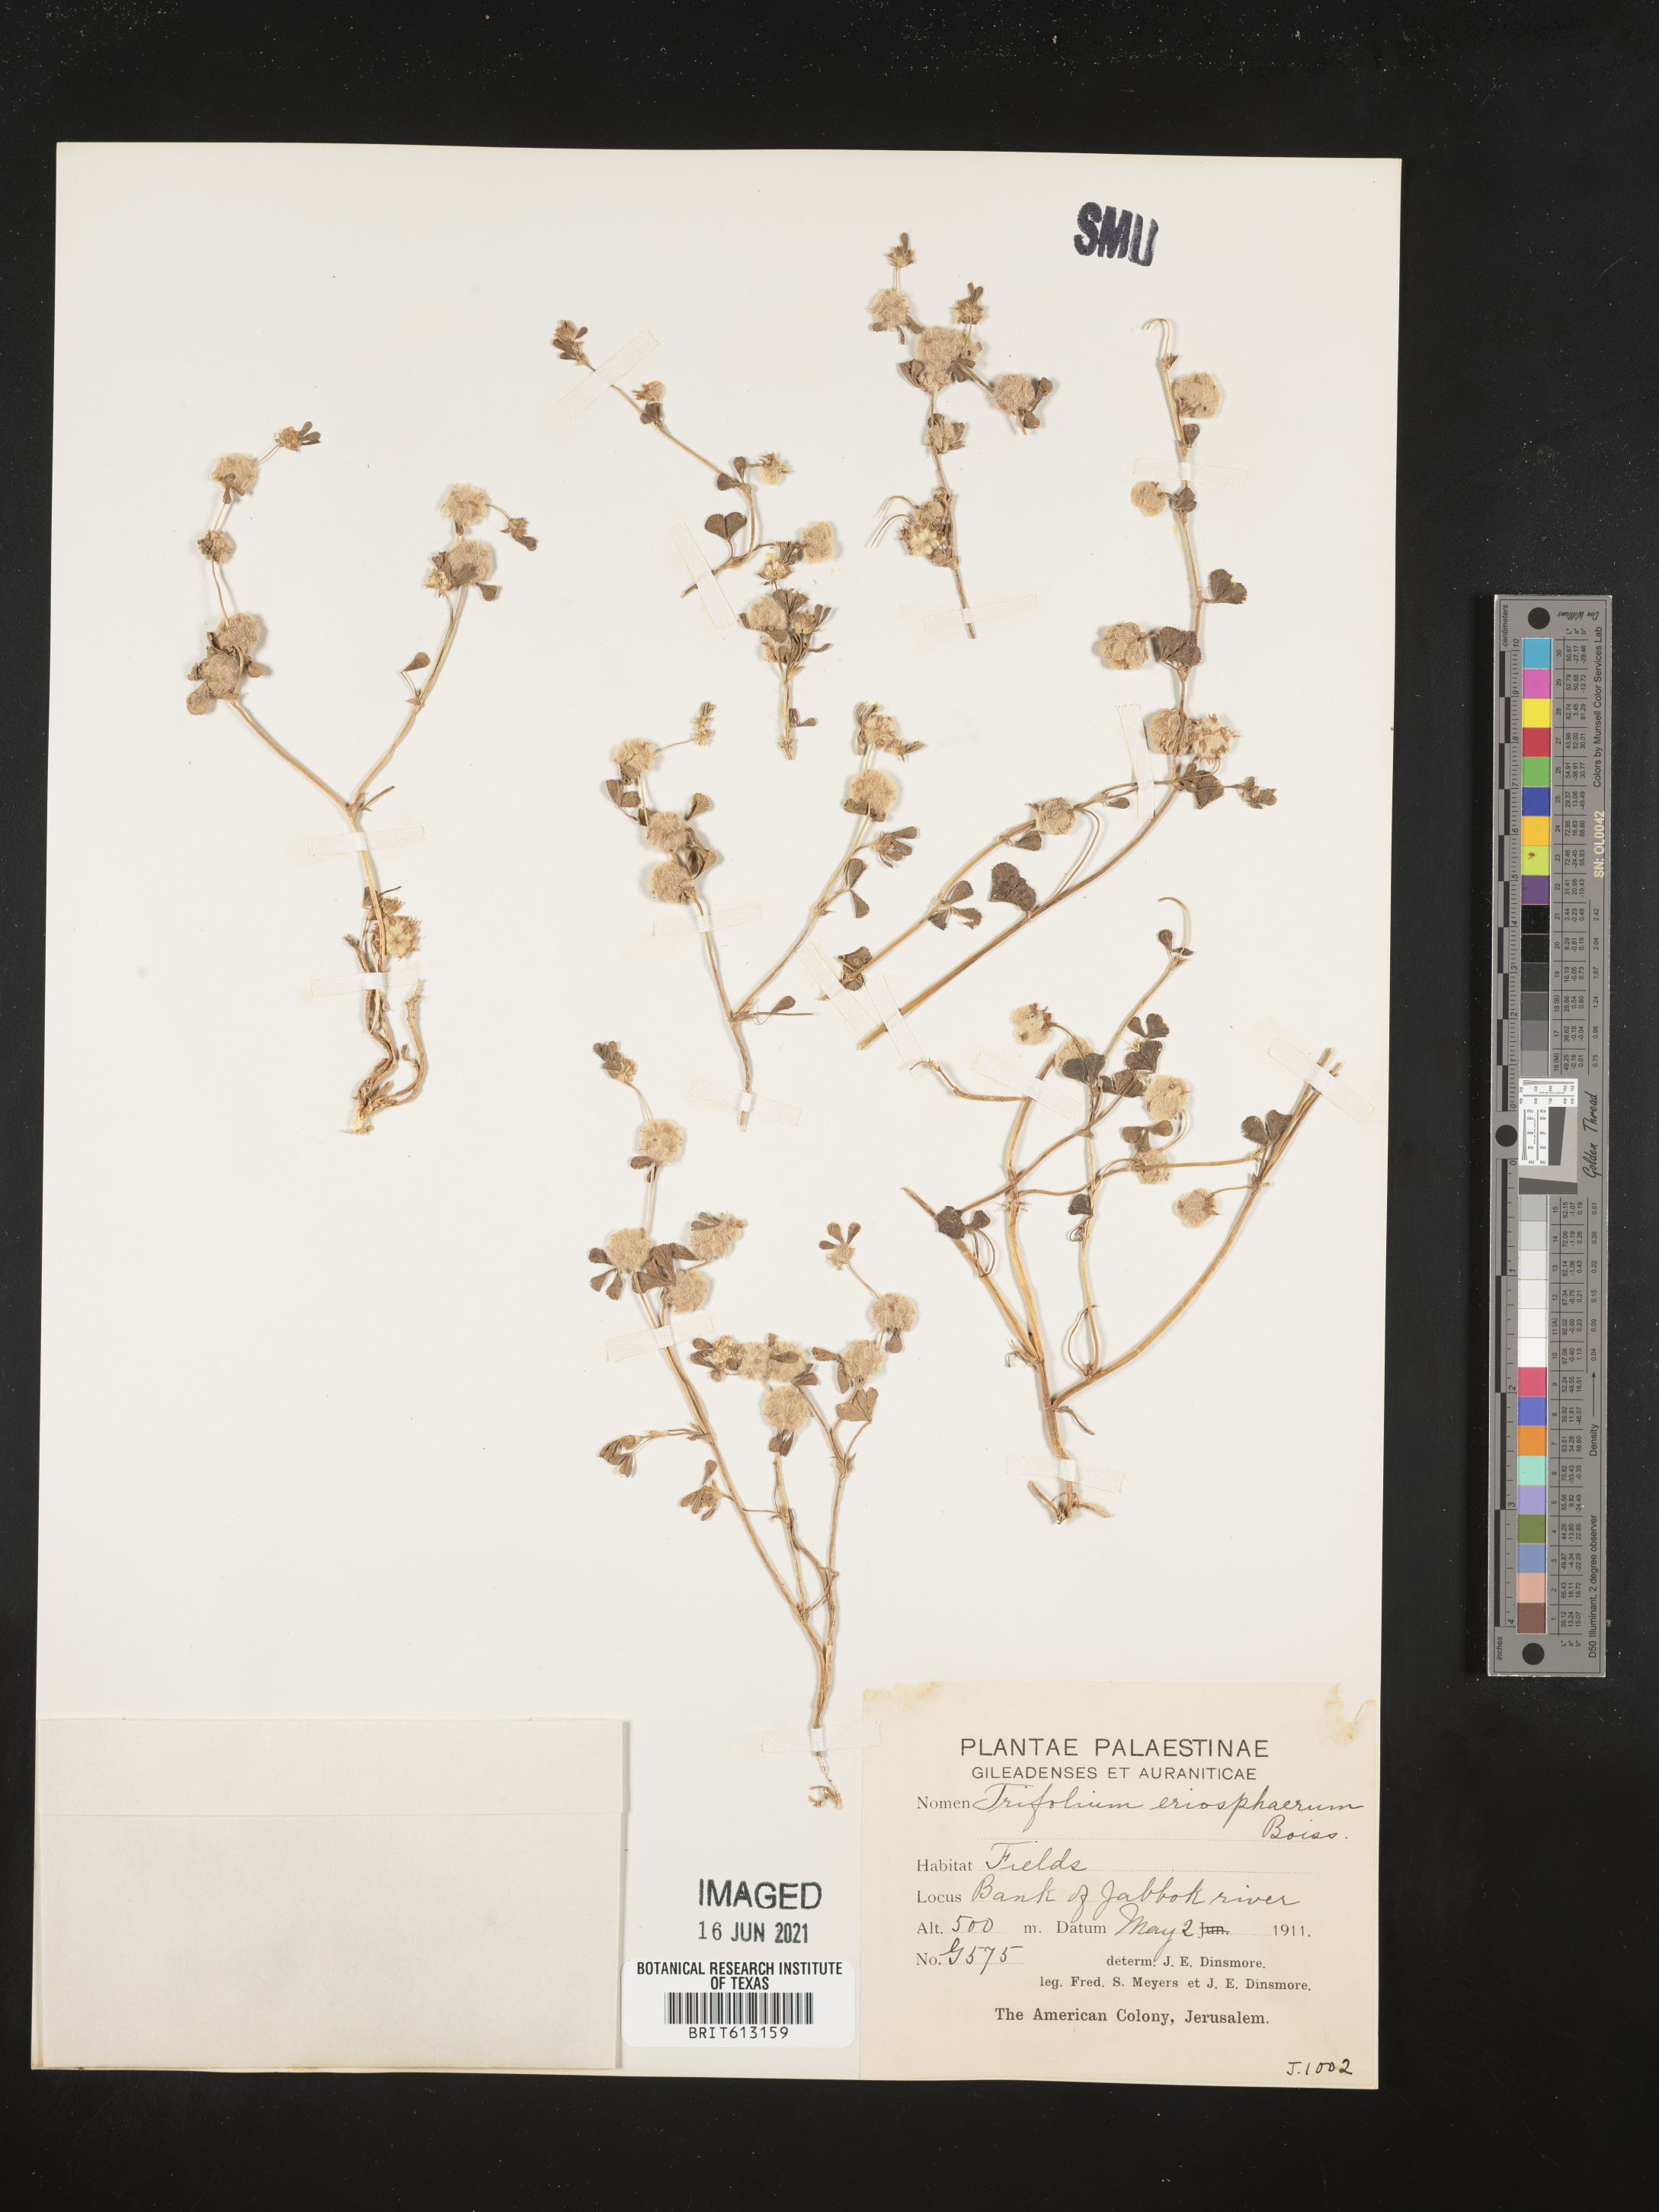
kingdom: Plantae
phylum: Tracheophyta
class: Magnoliopsida
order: Fabales
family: Fabaceae
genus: Trifolium
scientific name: Trifolium eriocephalum
